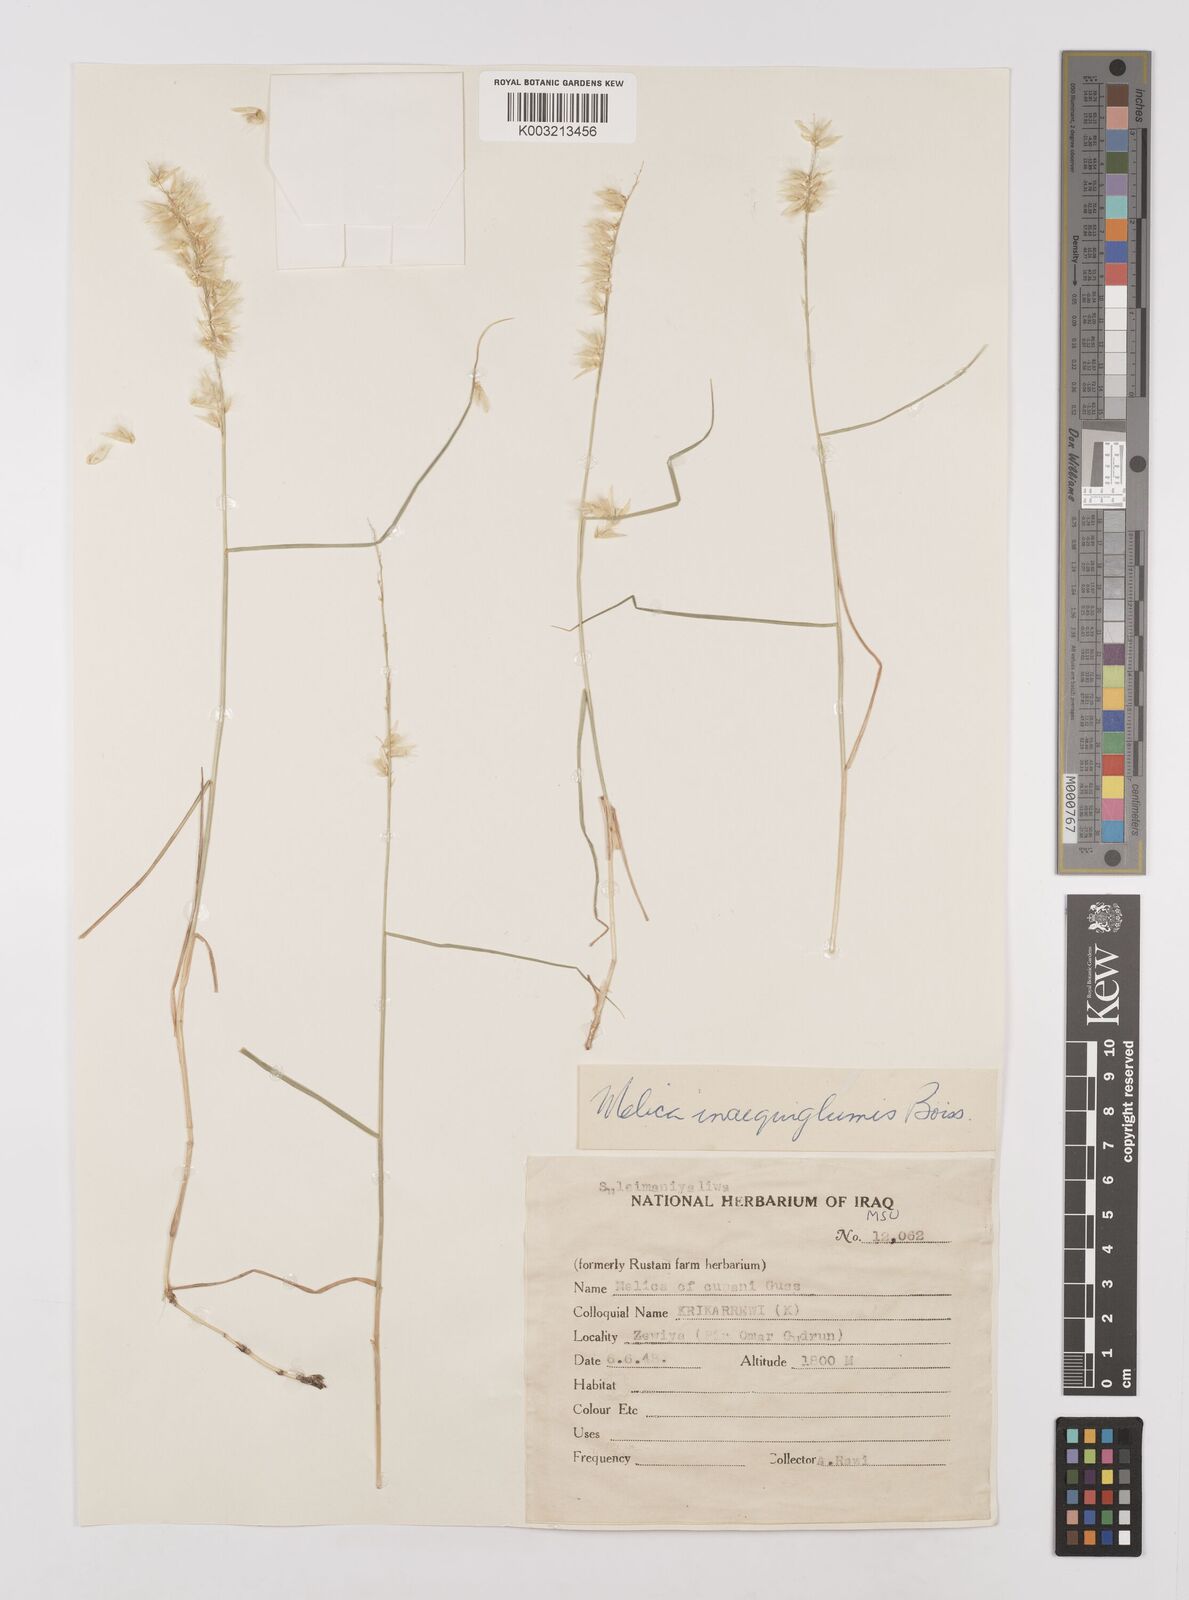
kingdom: Plantae
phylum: Tracheophyta
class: Liliopsida
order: Poales
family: Poaceae
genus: Melica
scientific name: Melica persica
